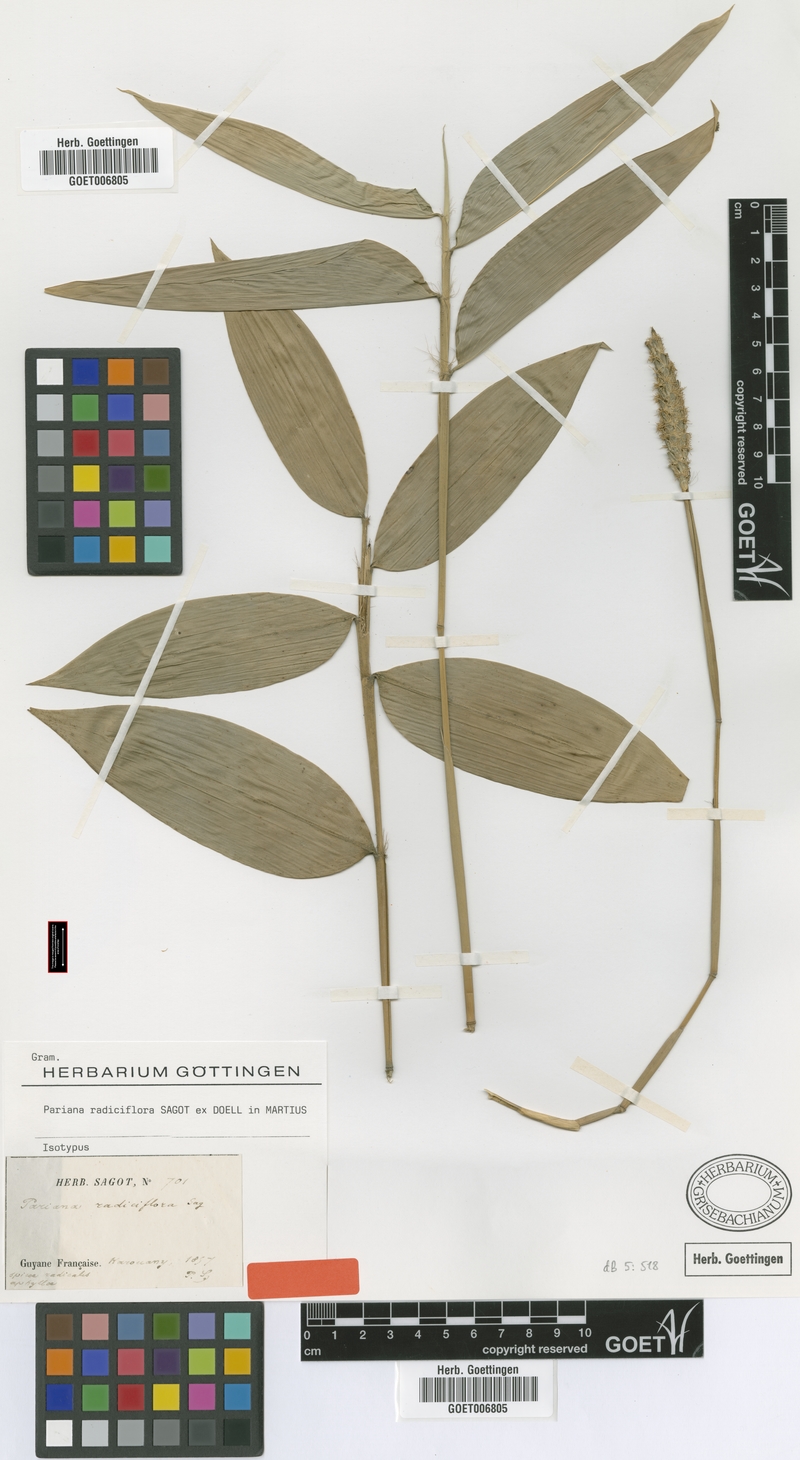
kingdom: Plantae
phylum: Tracheophyta
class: Liliopsida
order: Poales
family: Poaceae
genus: Pariana
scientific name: Pariana radiciflora
